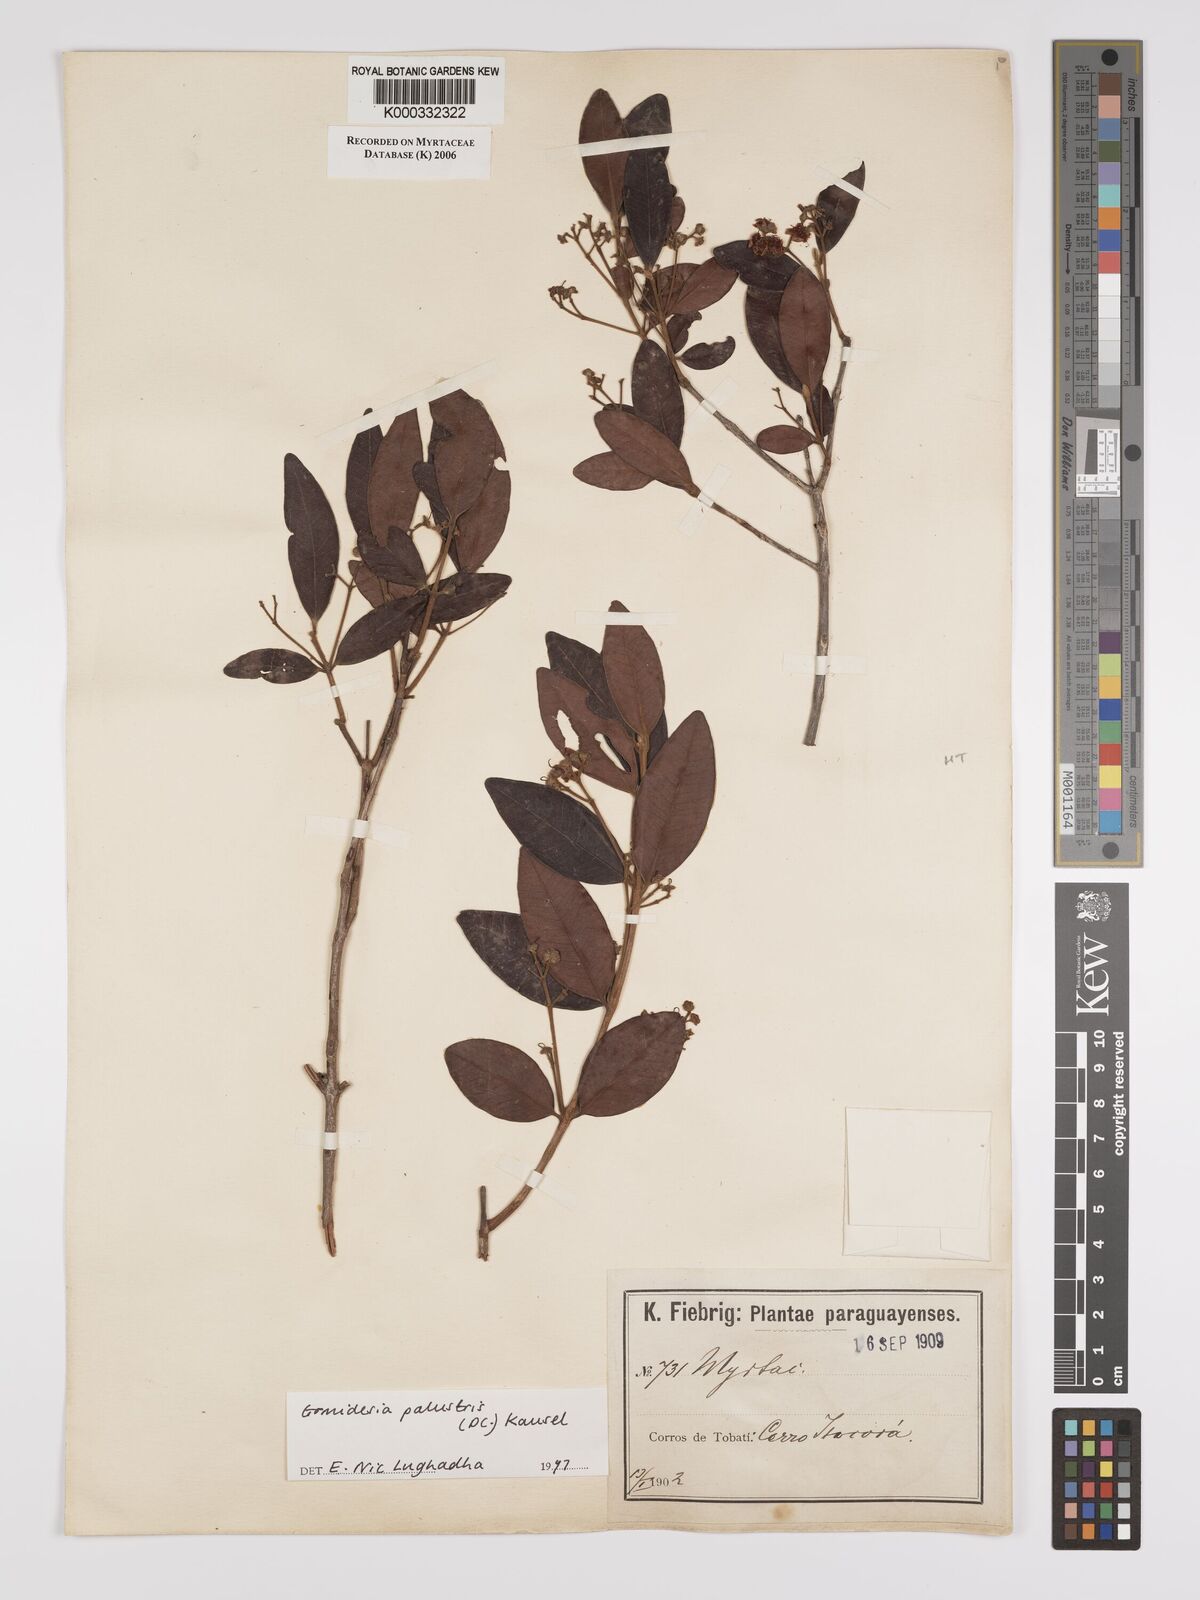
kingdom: Plantae
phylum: Tracheophyta
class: Magnoliopsida
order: Myrtales
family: Myrtaceae
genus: Myrcia
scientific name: Myrcia palustris
